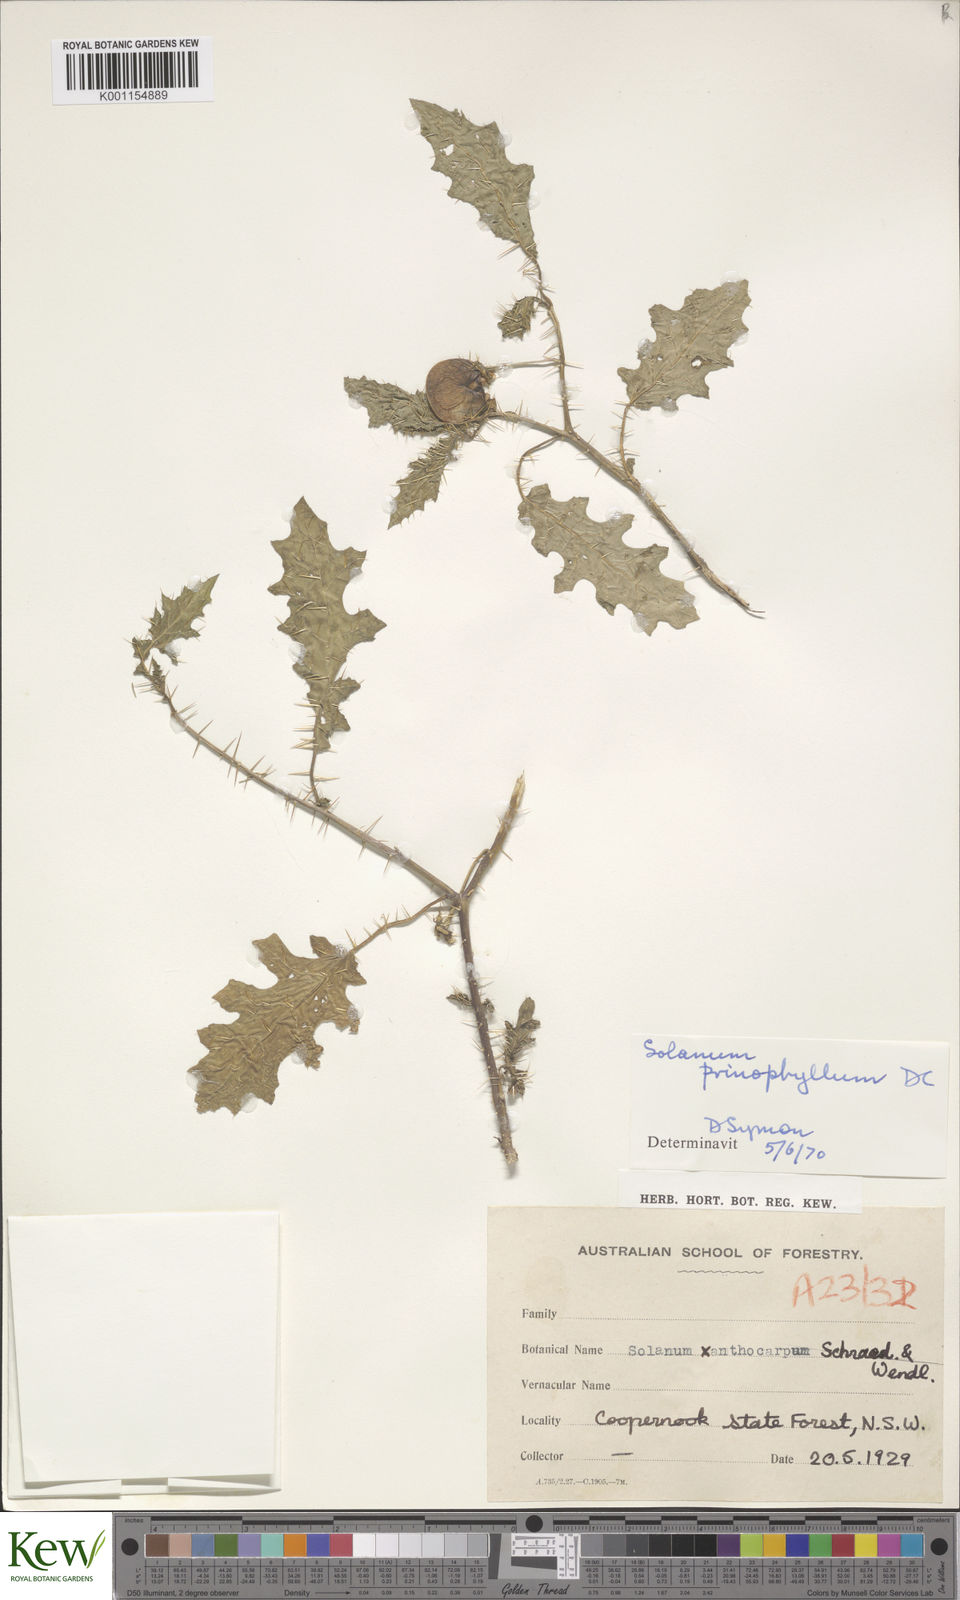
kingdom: Plantae
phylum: Tracheophyta
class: Magnoliopsida
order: Solanales
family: Solanaceae
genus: Solanum
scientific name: Solanum prinophyllum
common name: Forest nightshade
